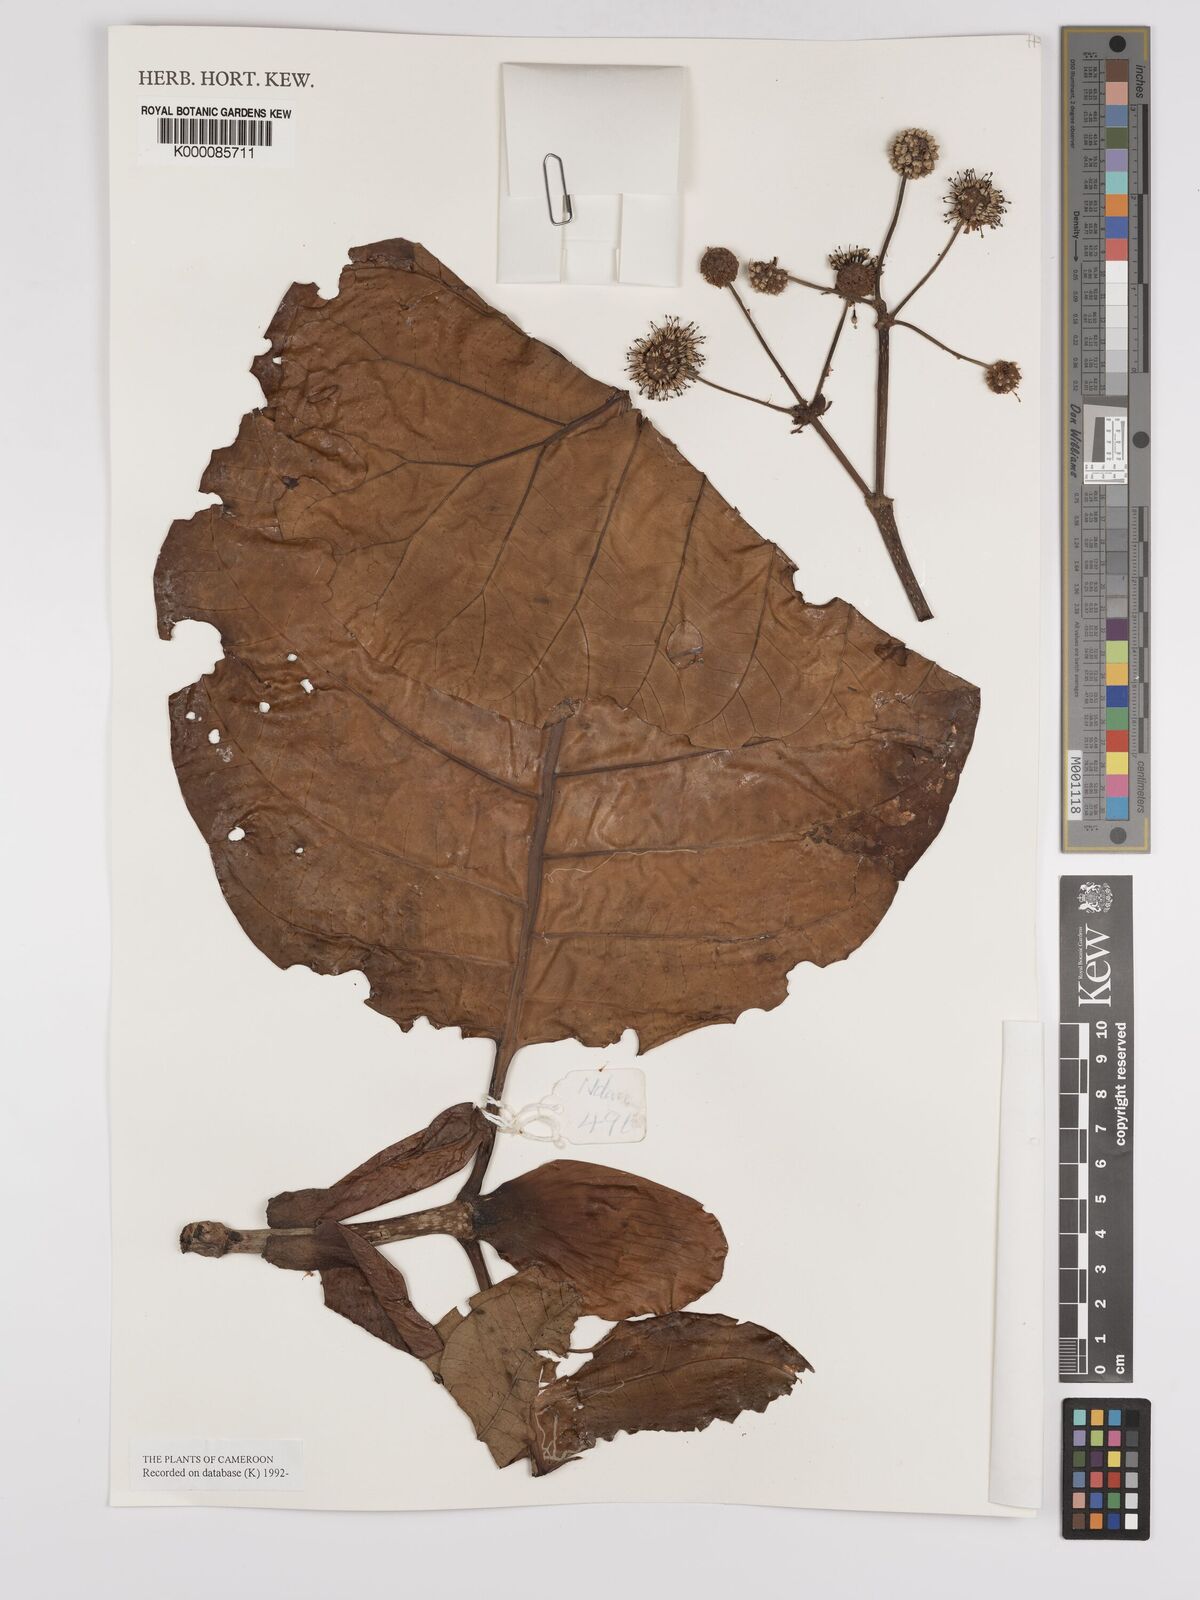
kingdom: Plantae
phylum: Tracheophyta
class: Magnoliopsida
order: Gentianales
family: Rubiaceae
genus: Mitragyna
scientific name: Mitragyna stipulosa
